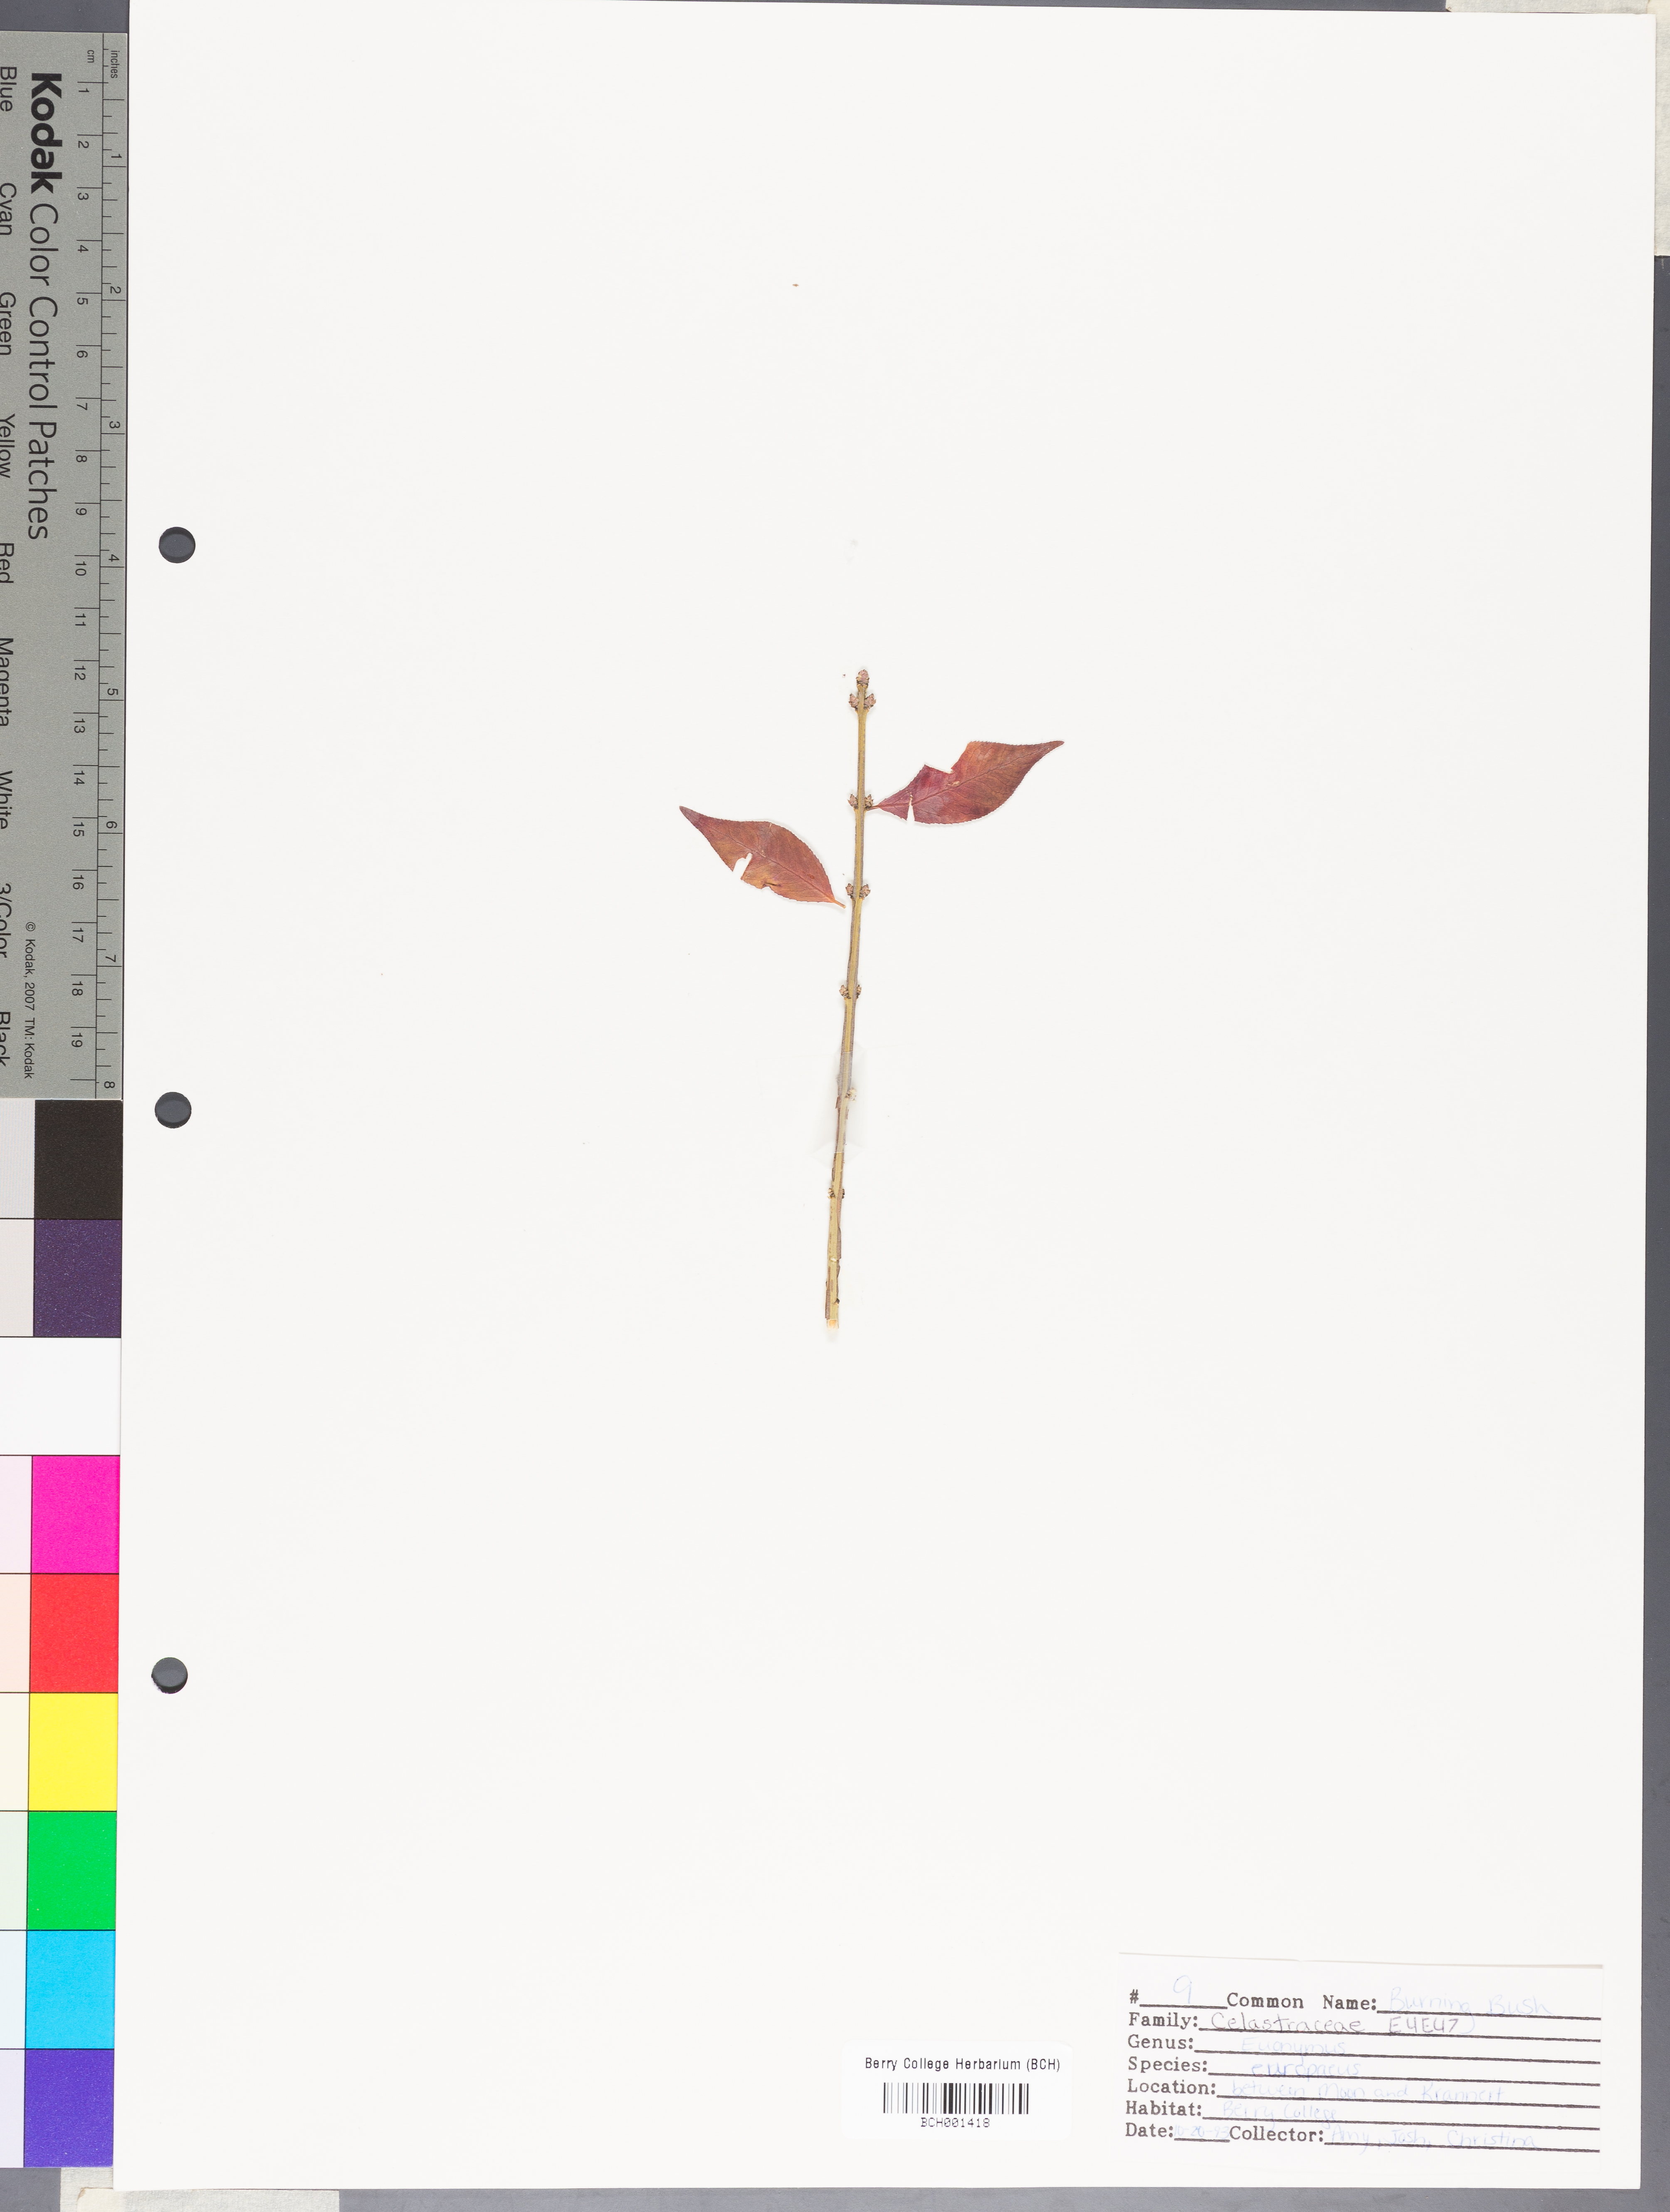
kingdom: Plantae
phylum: Tracheophyta
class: Magnoliopsida
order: Celastrales
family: Celastraceae
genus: Euonymus
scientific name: Euonymus europaeus
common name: Spindle
